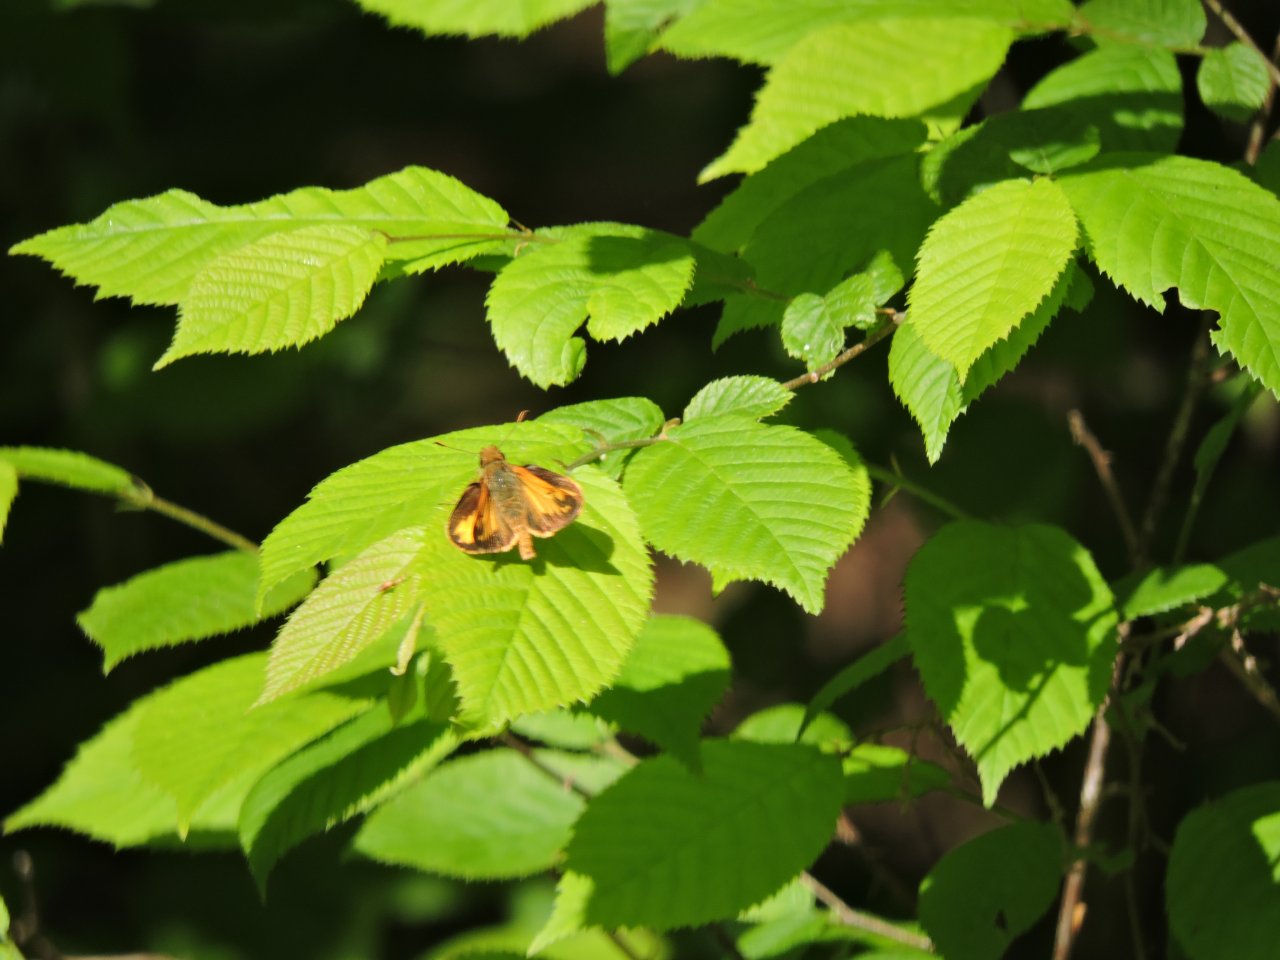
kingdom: Animalia
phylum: Arthropoda
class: Insecta
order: Lepidoptera
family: Hesperiidae
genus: Lon
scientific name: Lon zabulon
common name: Zabulon Skipper
